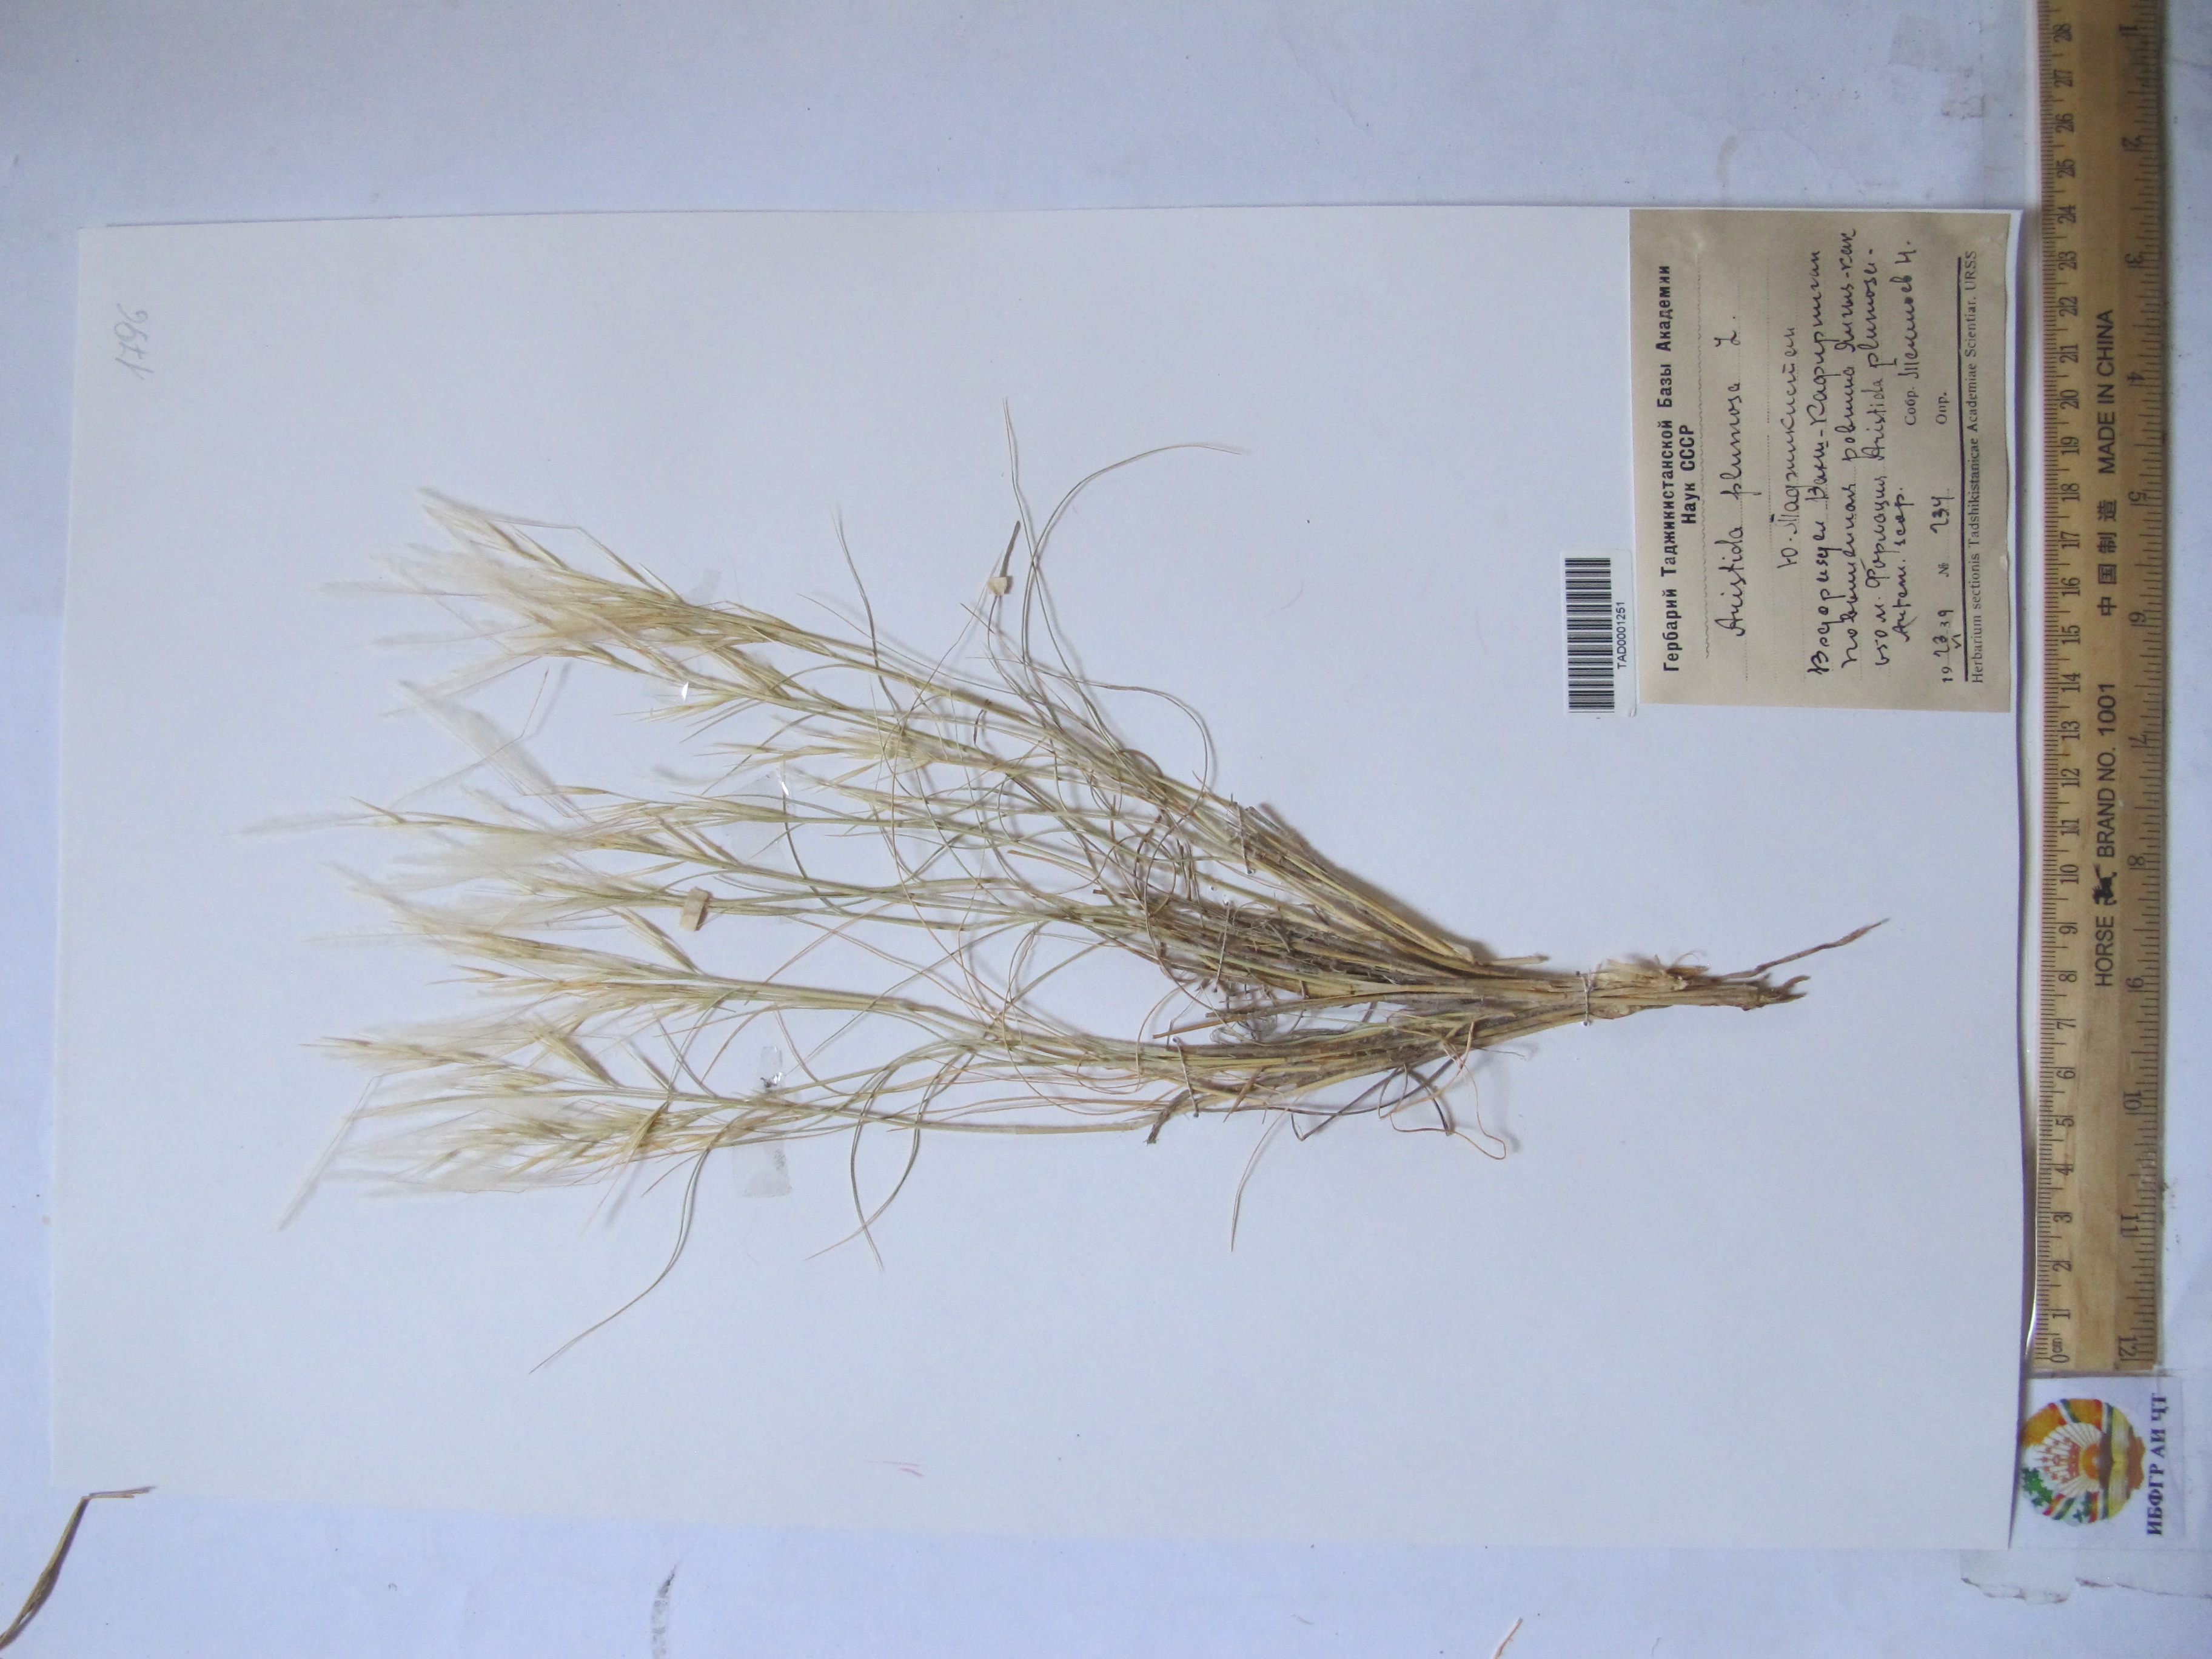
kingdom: Plantae
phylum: Tracheophyta
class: Liliopsida
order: Poales
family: Poaceae
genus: Stipagrostis
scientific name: Stipagrostis plumosa
